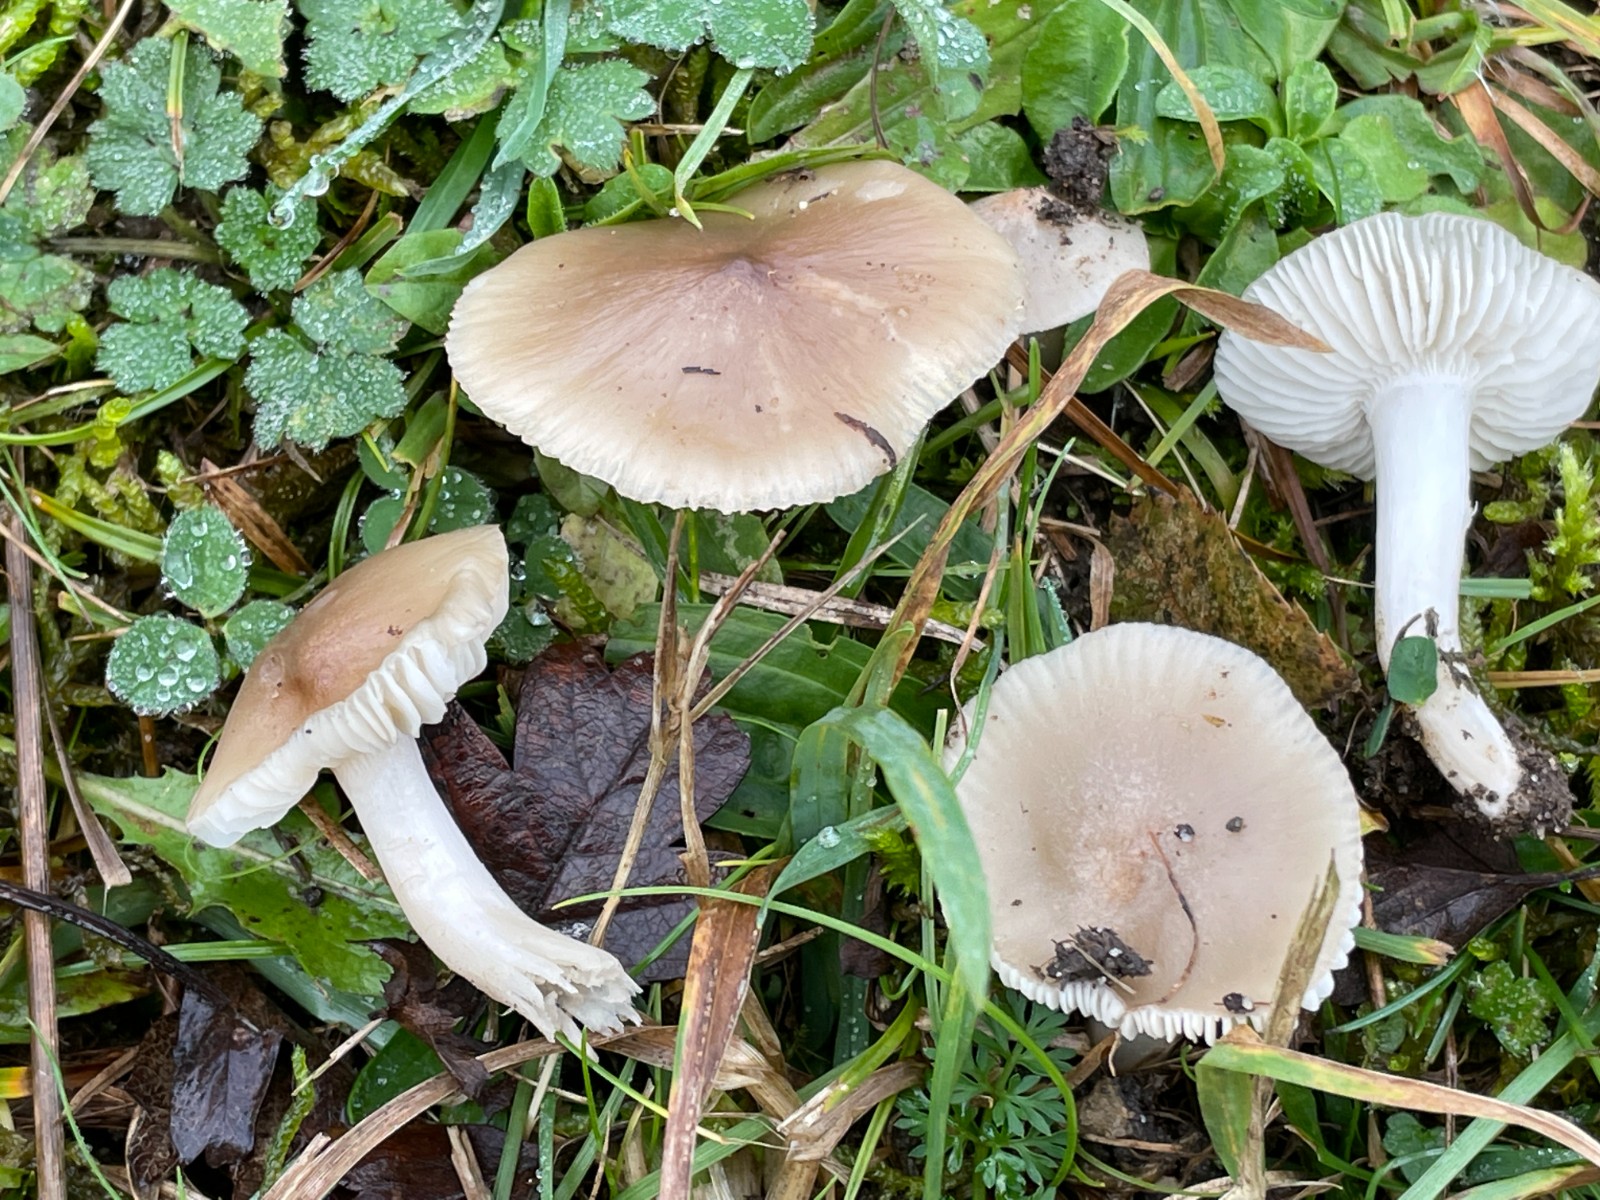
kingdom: Fungi
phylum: Basidiomycota
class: Agaricomycetes
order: Agaricales
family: Hygrophoraceae
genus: Cuphophyllus
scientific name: Cuphophyllus fornicatus
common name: gråbrun vokshat
